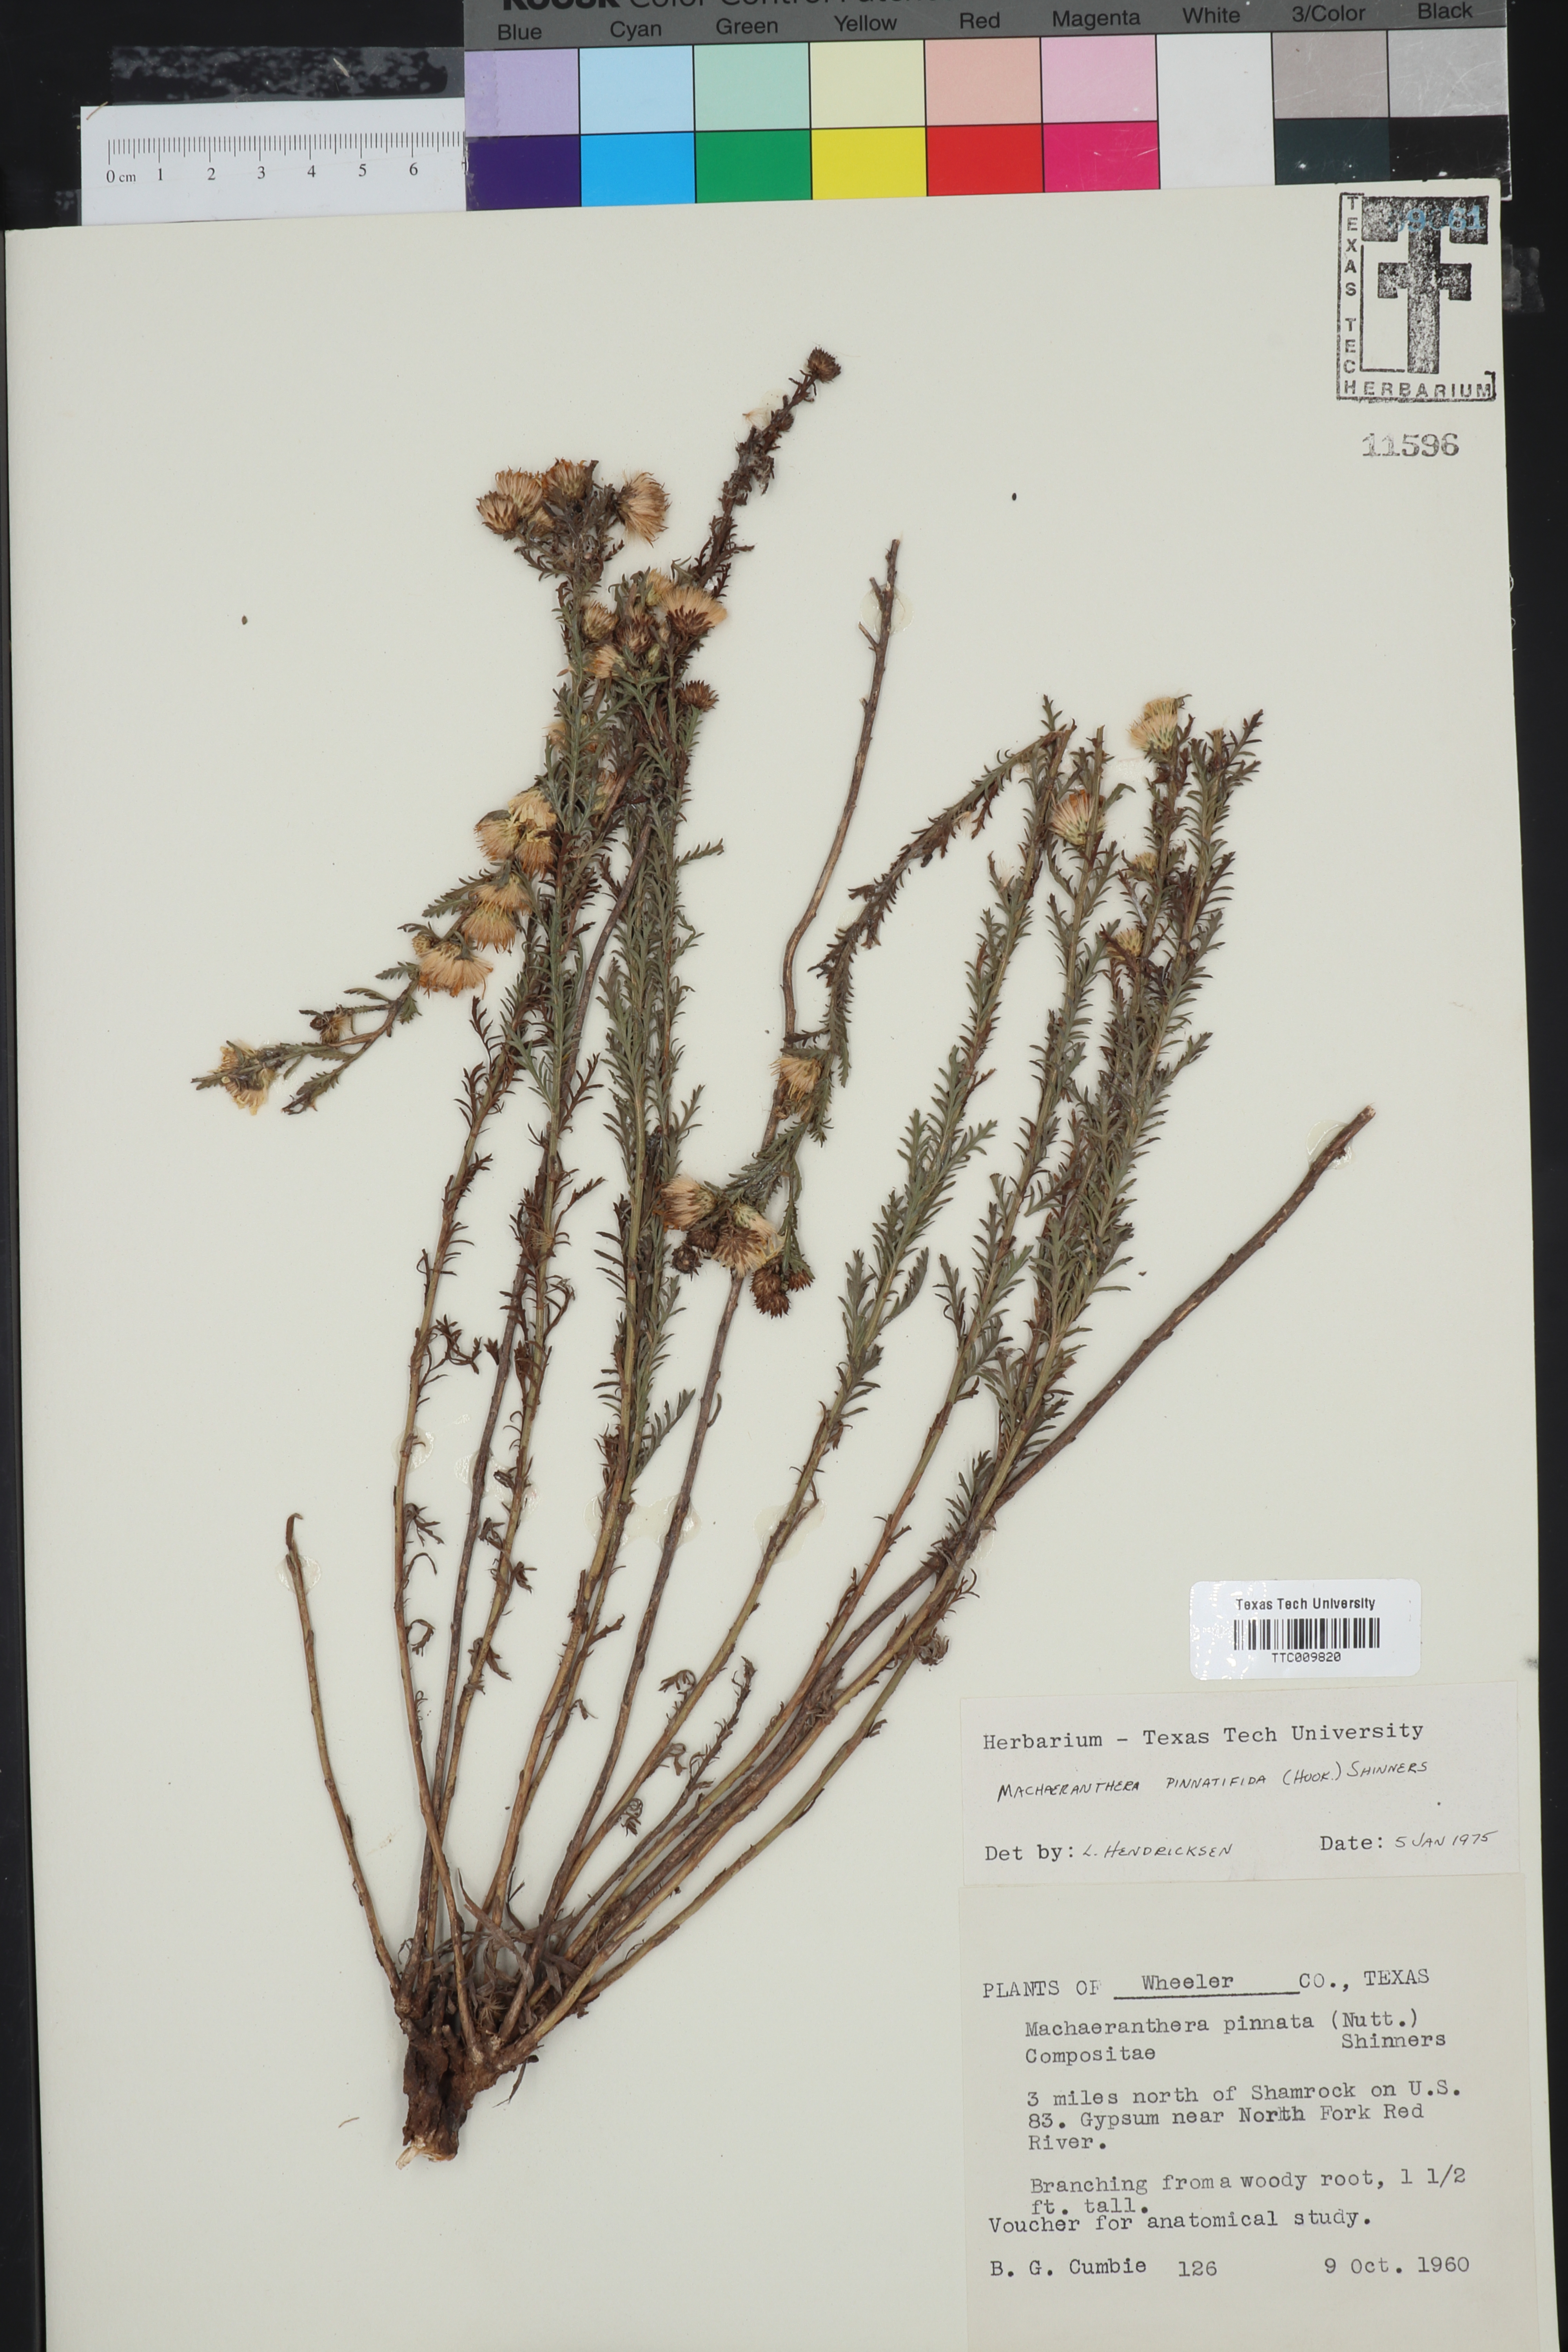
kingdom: Plantae
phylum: Tracheophyta
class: Magnoliopsida
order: Asterales
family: Asteraceae
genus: Xanthisma
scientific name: Xanthisma spinulosum
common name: Spiny goldenweed
